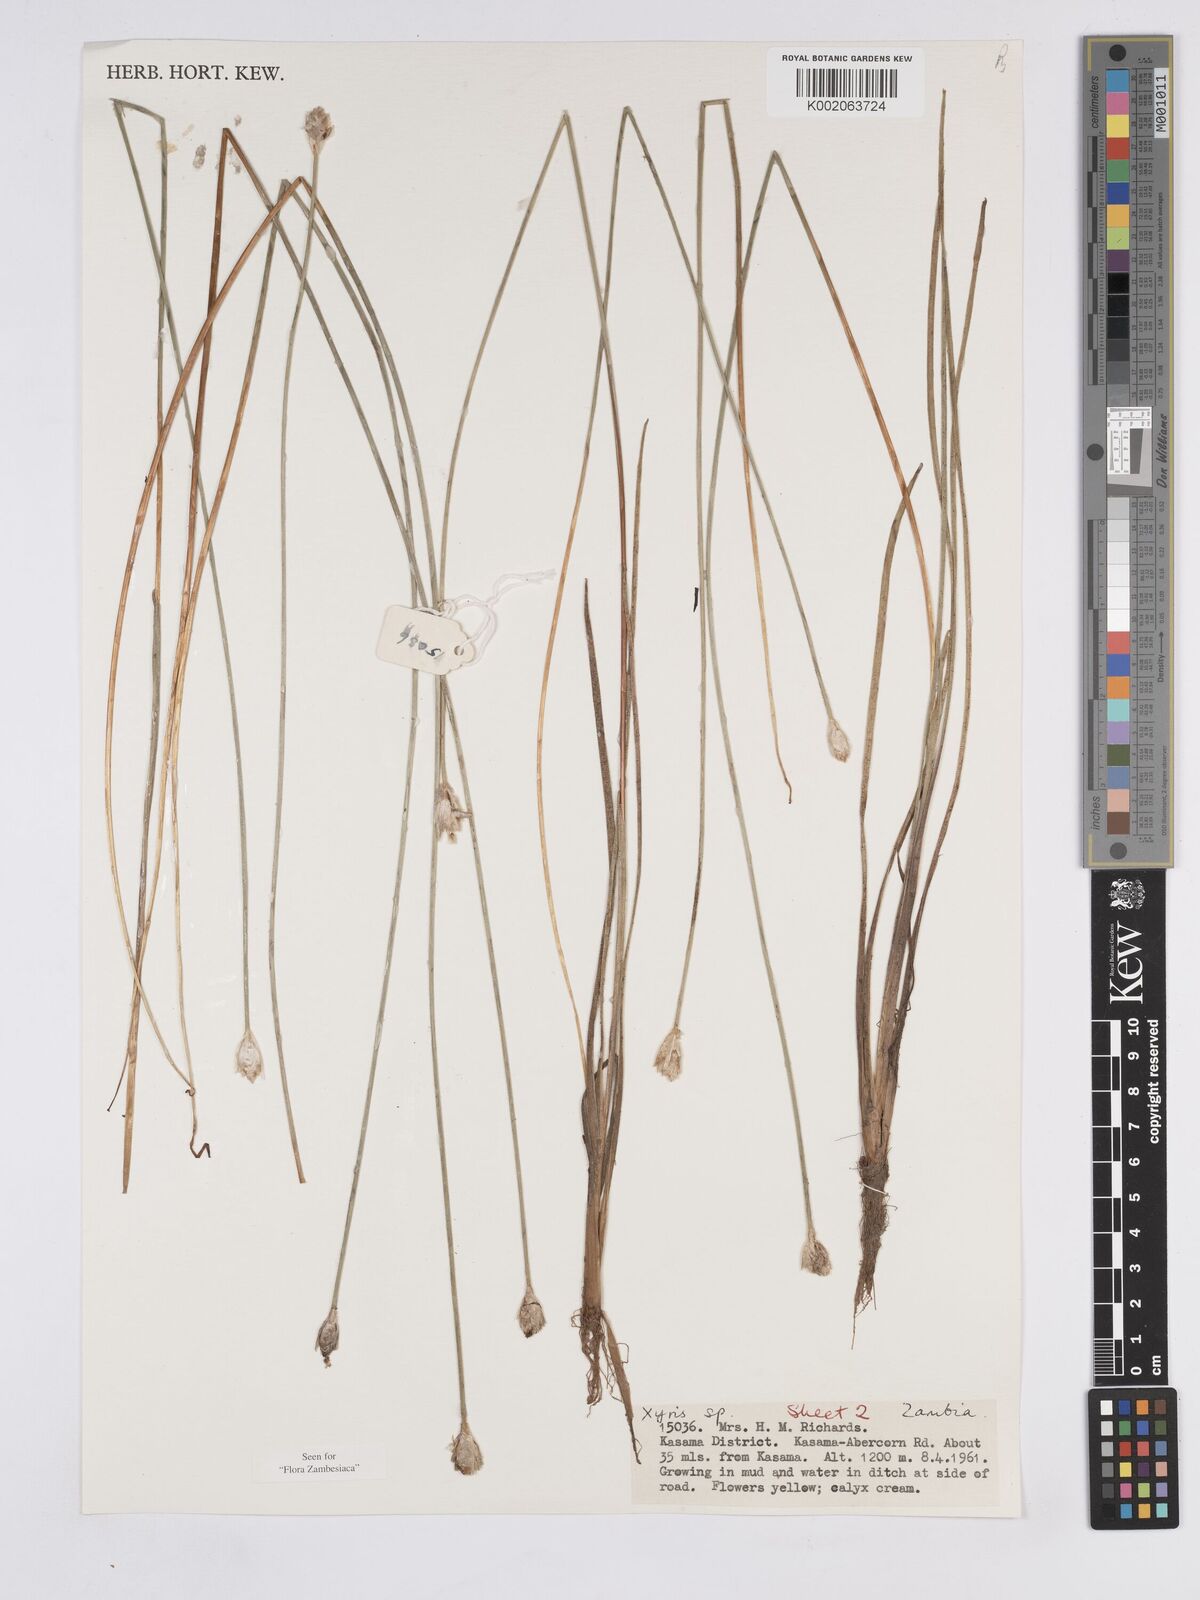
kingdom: Plantae
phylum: Tracheophyta
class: Liliopsida
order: Poales
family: Xyridaceae
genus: Xyris
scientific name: Xyris kornasiana
